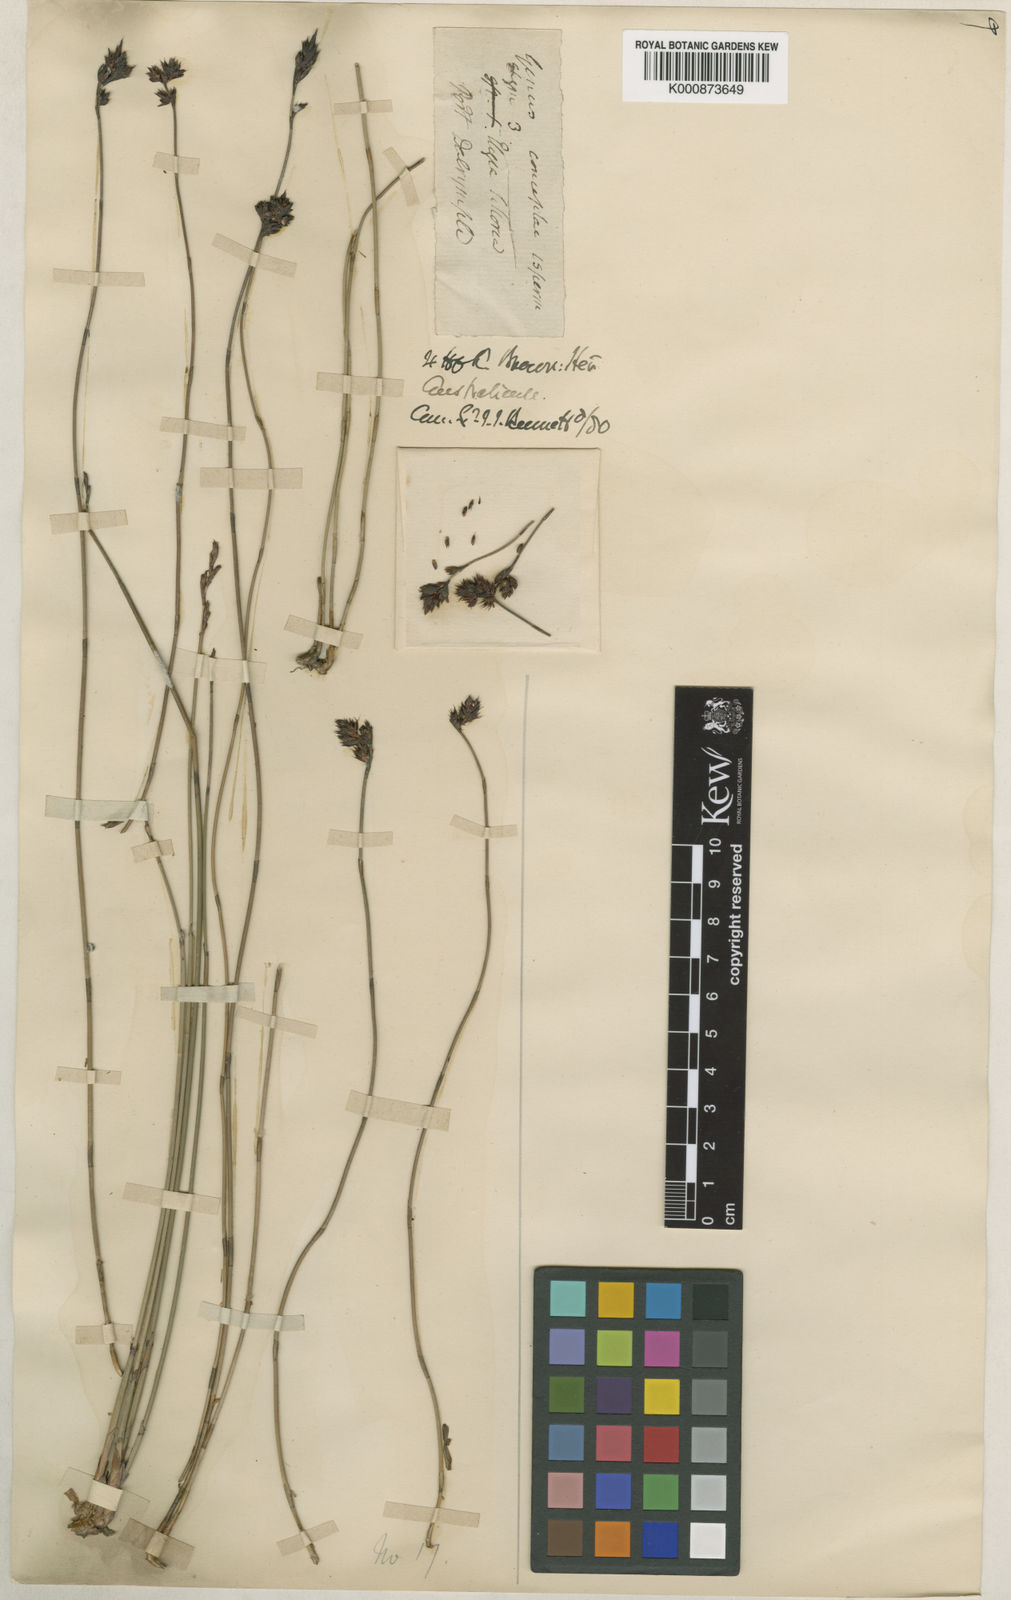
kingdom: Plantae
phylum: Tracheophyta
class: Liliopsida
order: Poales
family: Restionaceae
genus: Apodasmia
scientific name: Apodasmia brownii
